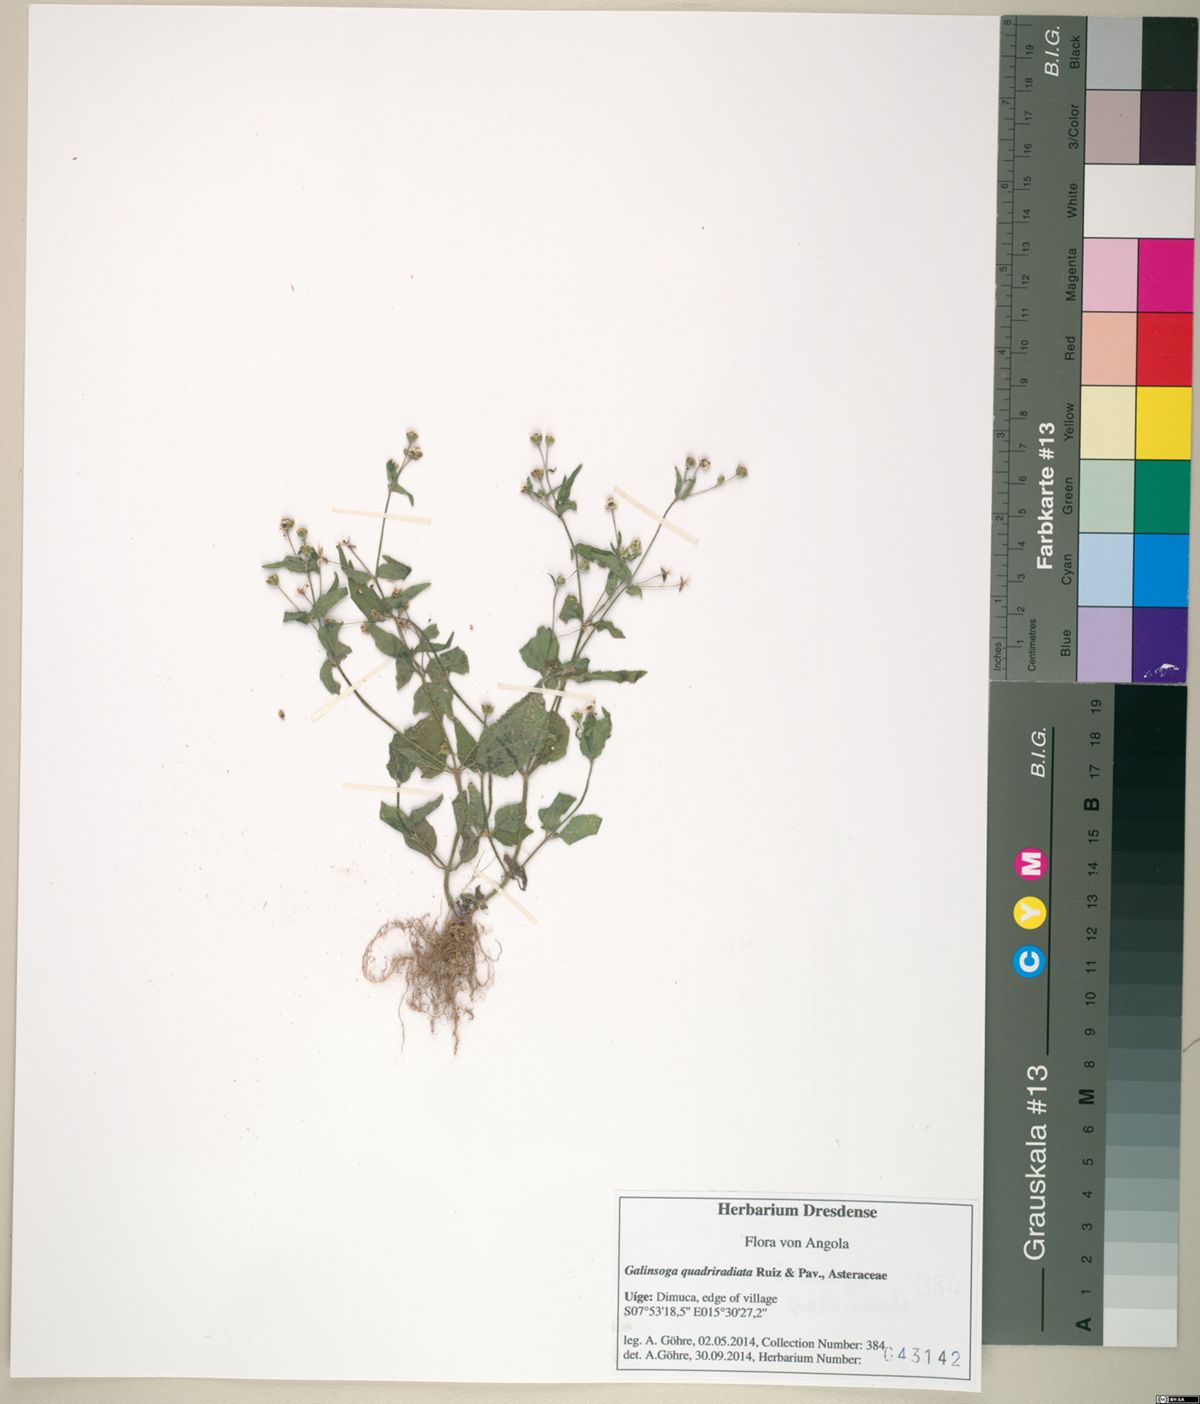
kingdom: Plantae
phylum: Tracheophyta
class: Magnoliopsida
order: Asterales
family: Asteraceae
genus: Galinsoga
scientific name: Galinsoga quadriradiata
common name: Shaggy soldier
